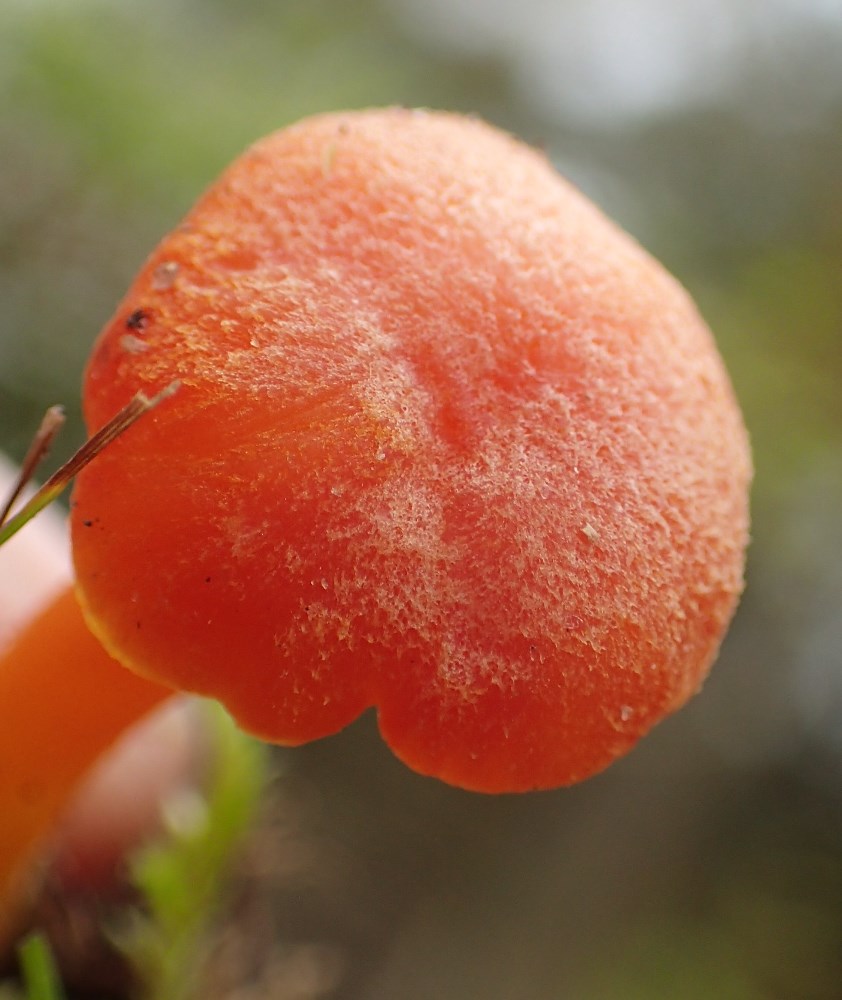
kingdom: Fungi
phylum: Basidiomycota
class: Agaricomycetes
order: Agaricales
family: Hygrophoraceae
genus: Hygrocybe
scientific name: Hygrocybe reidii
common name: honning-vokshat
